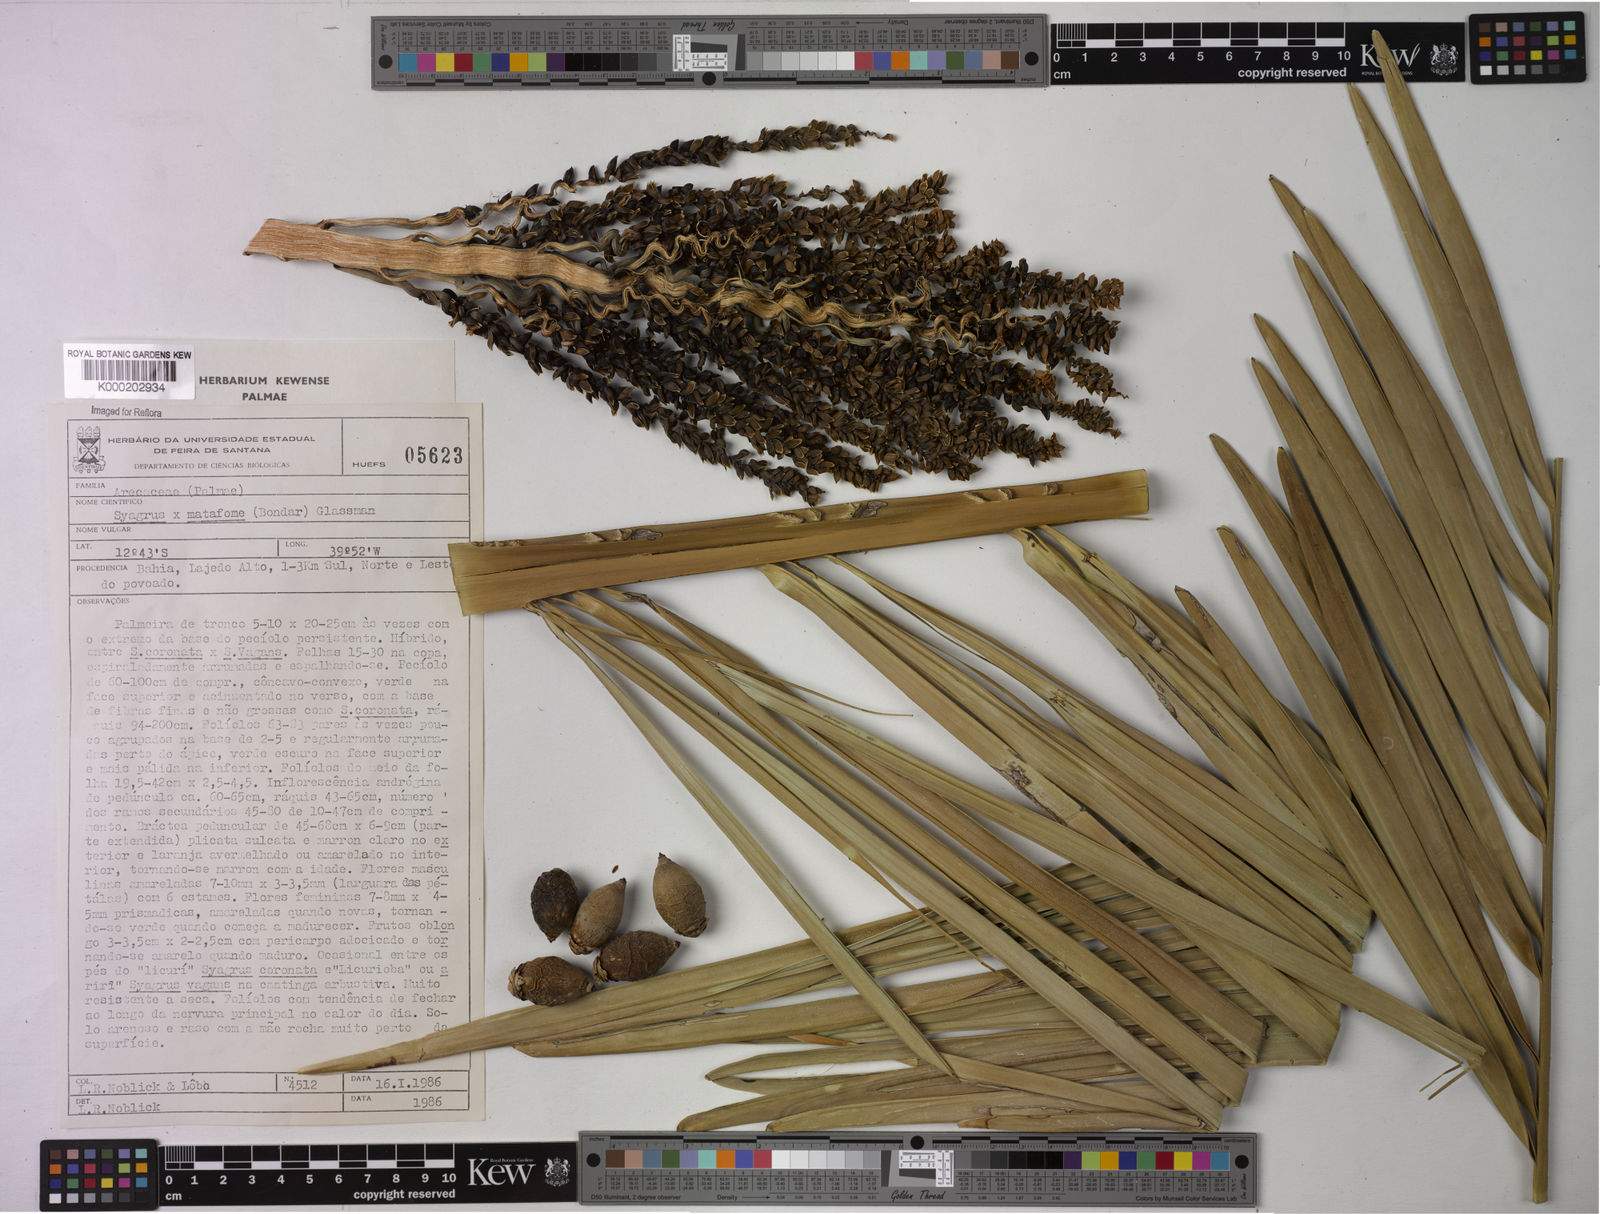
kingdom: Plantae
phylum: Tracheophyta
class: Liliopsida
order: Arecales
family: Arecaceae
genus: Syagrus
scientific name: Syagrus
